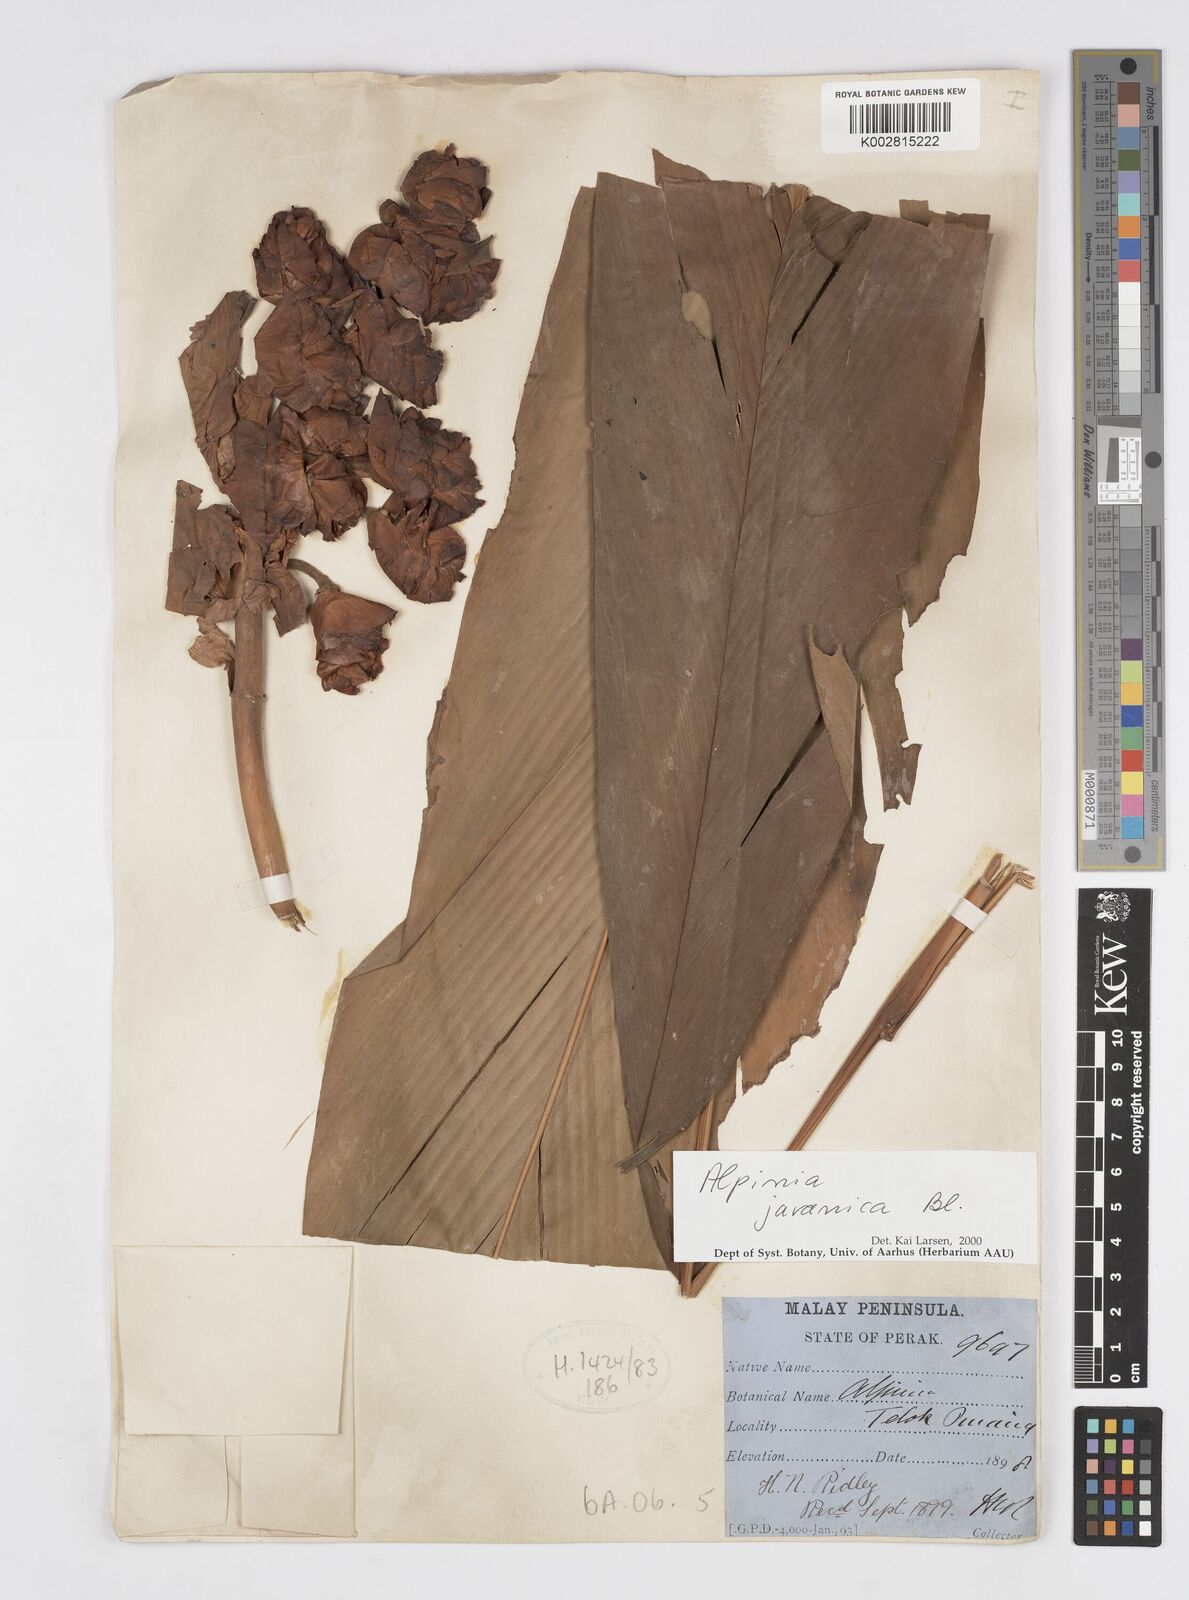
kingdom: Plantae
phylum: Tracheophyta
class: Liliopsida
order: Zingiberales
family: Zingiberaceae
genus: Alpinia
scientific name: Alpinia javanica
